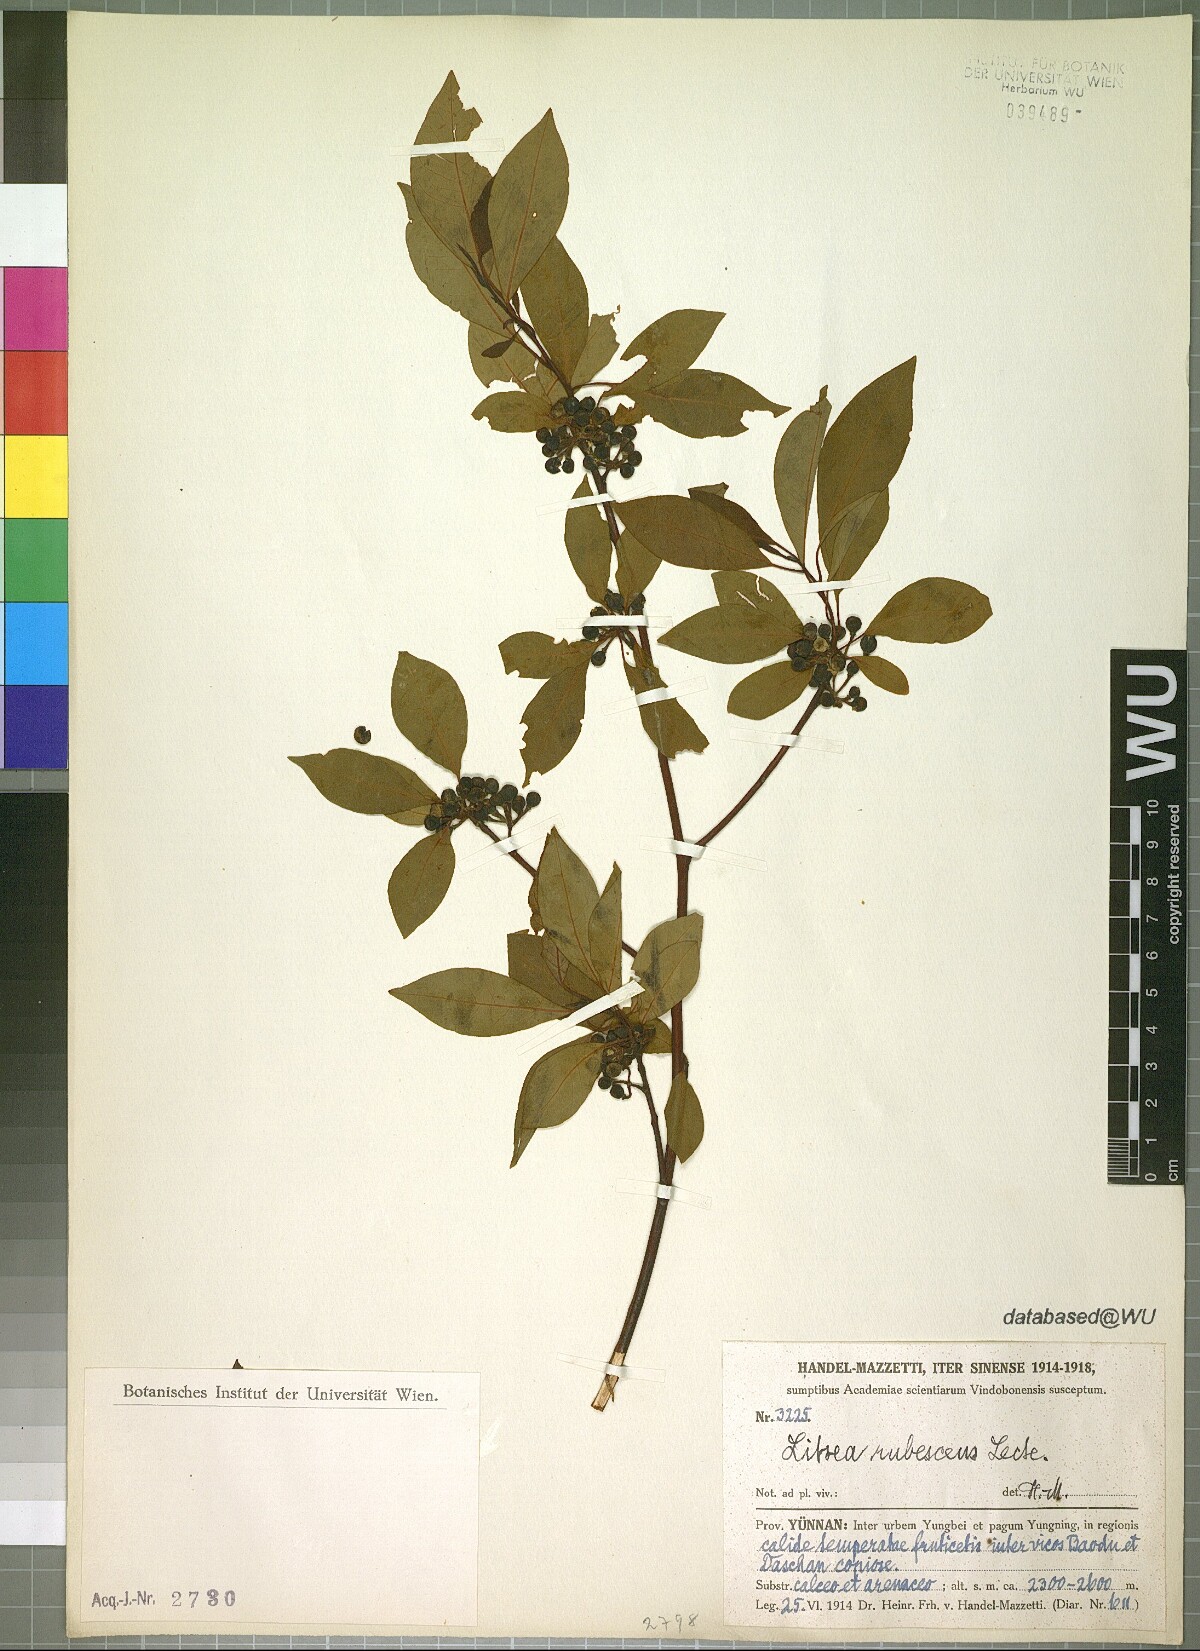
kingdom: Plantae
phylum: Tracheophyta
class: Magnoliopsida
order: Laurales
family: Lauraceae
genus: Litsea
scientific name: Litsea rubescens
